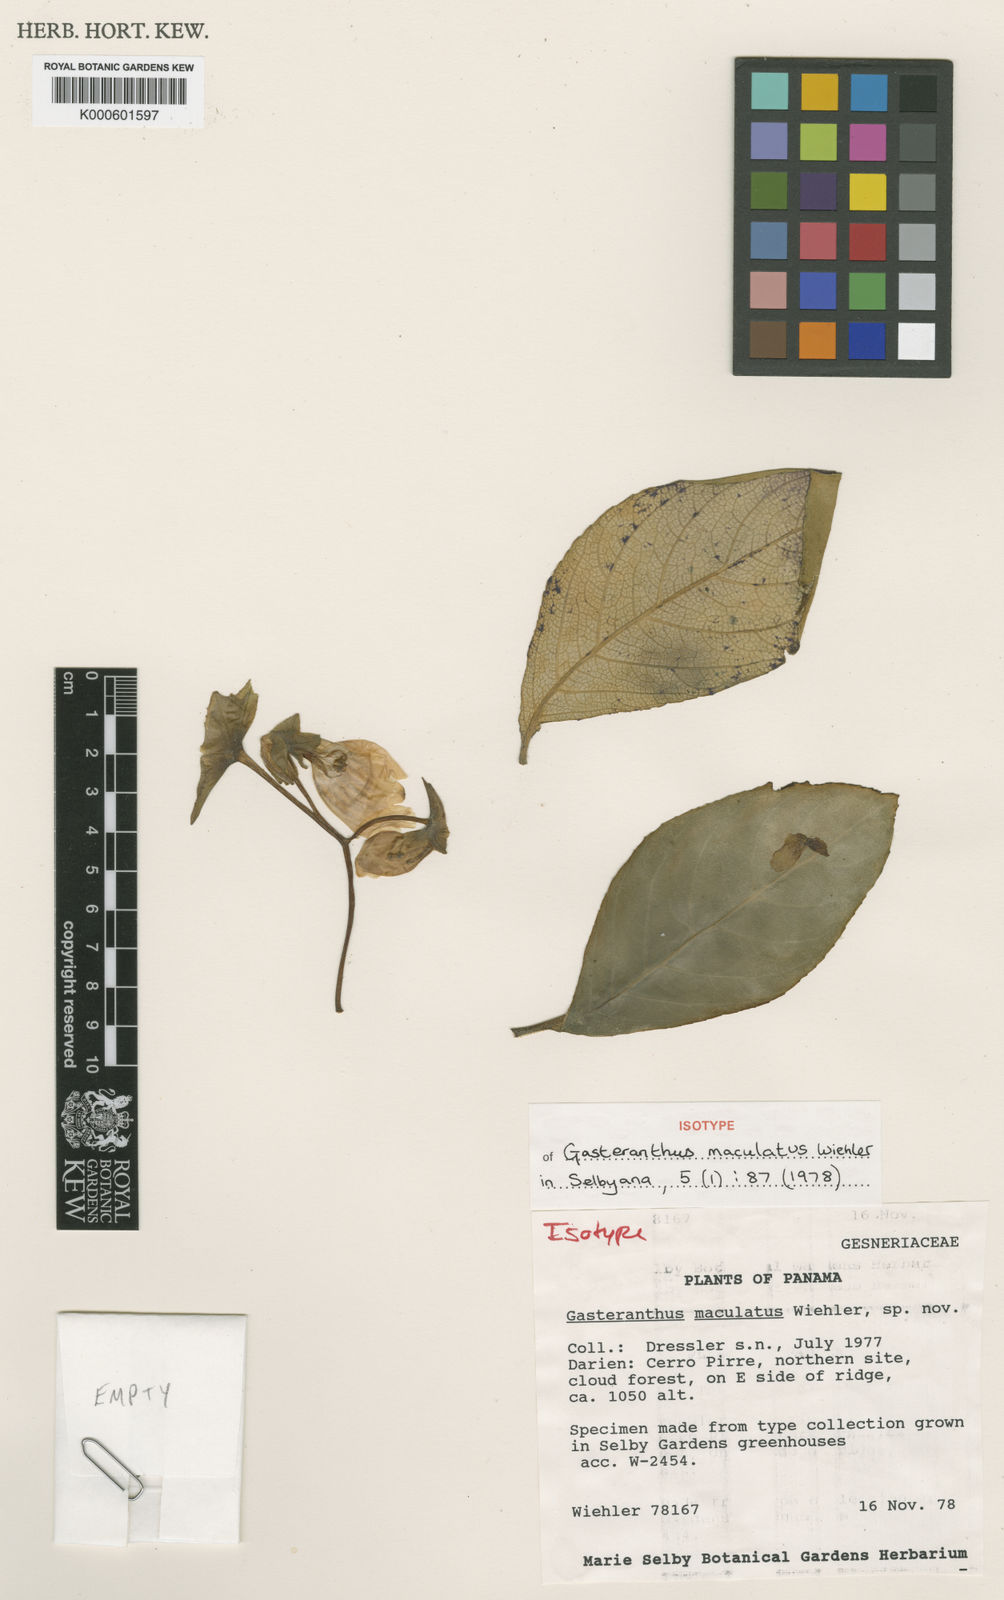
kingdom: Plantae
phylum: Tracheophyta
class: Magnoliopsida
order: Lamiales
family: Gesneriaceae
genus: Gasteranthus
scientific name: Gasteranthus delphinioides
